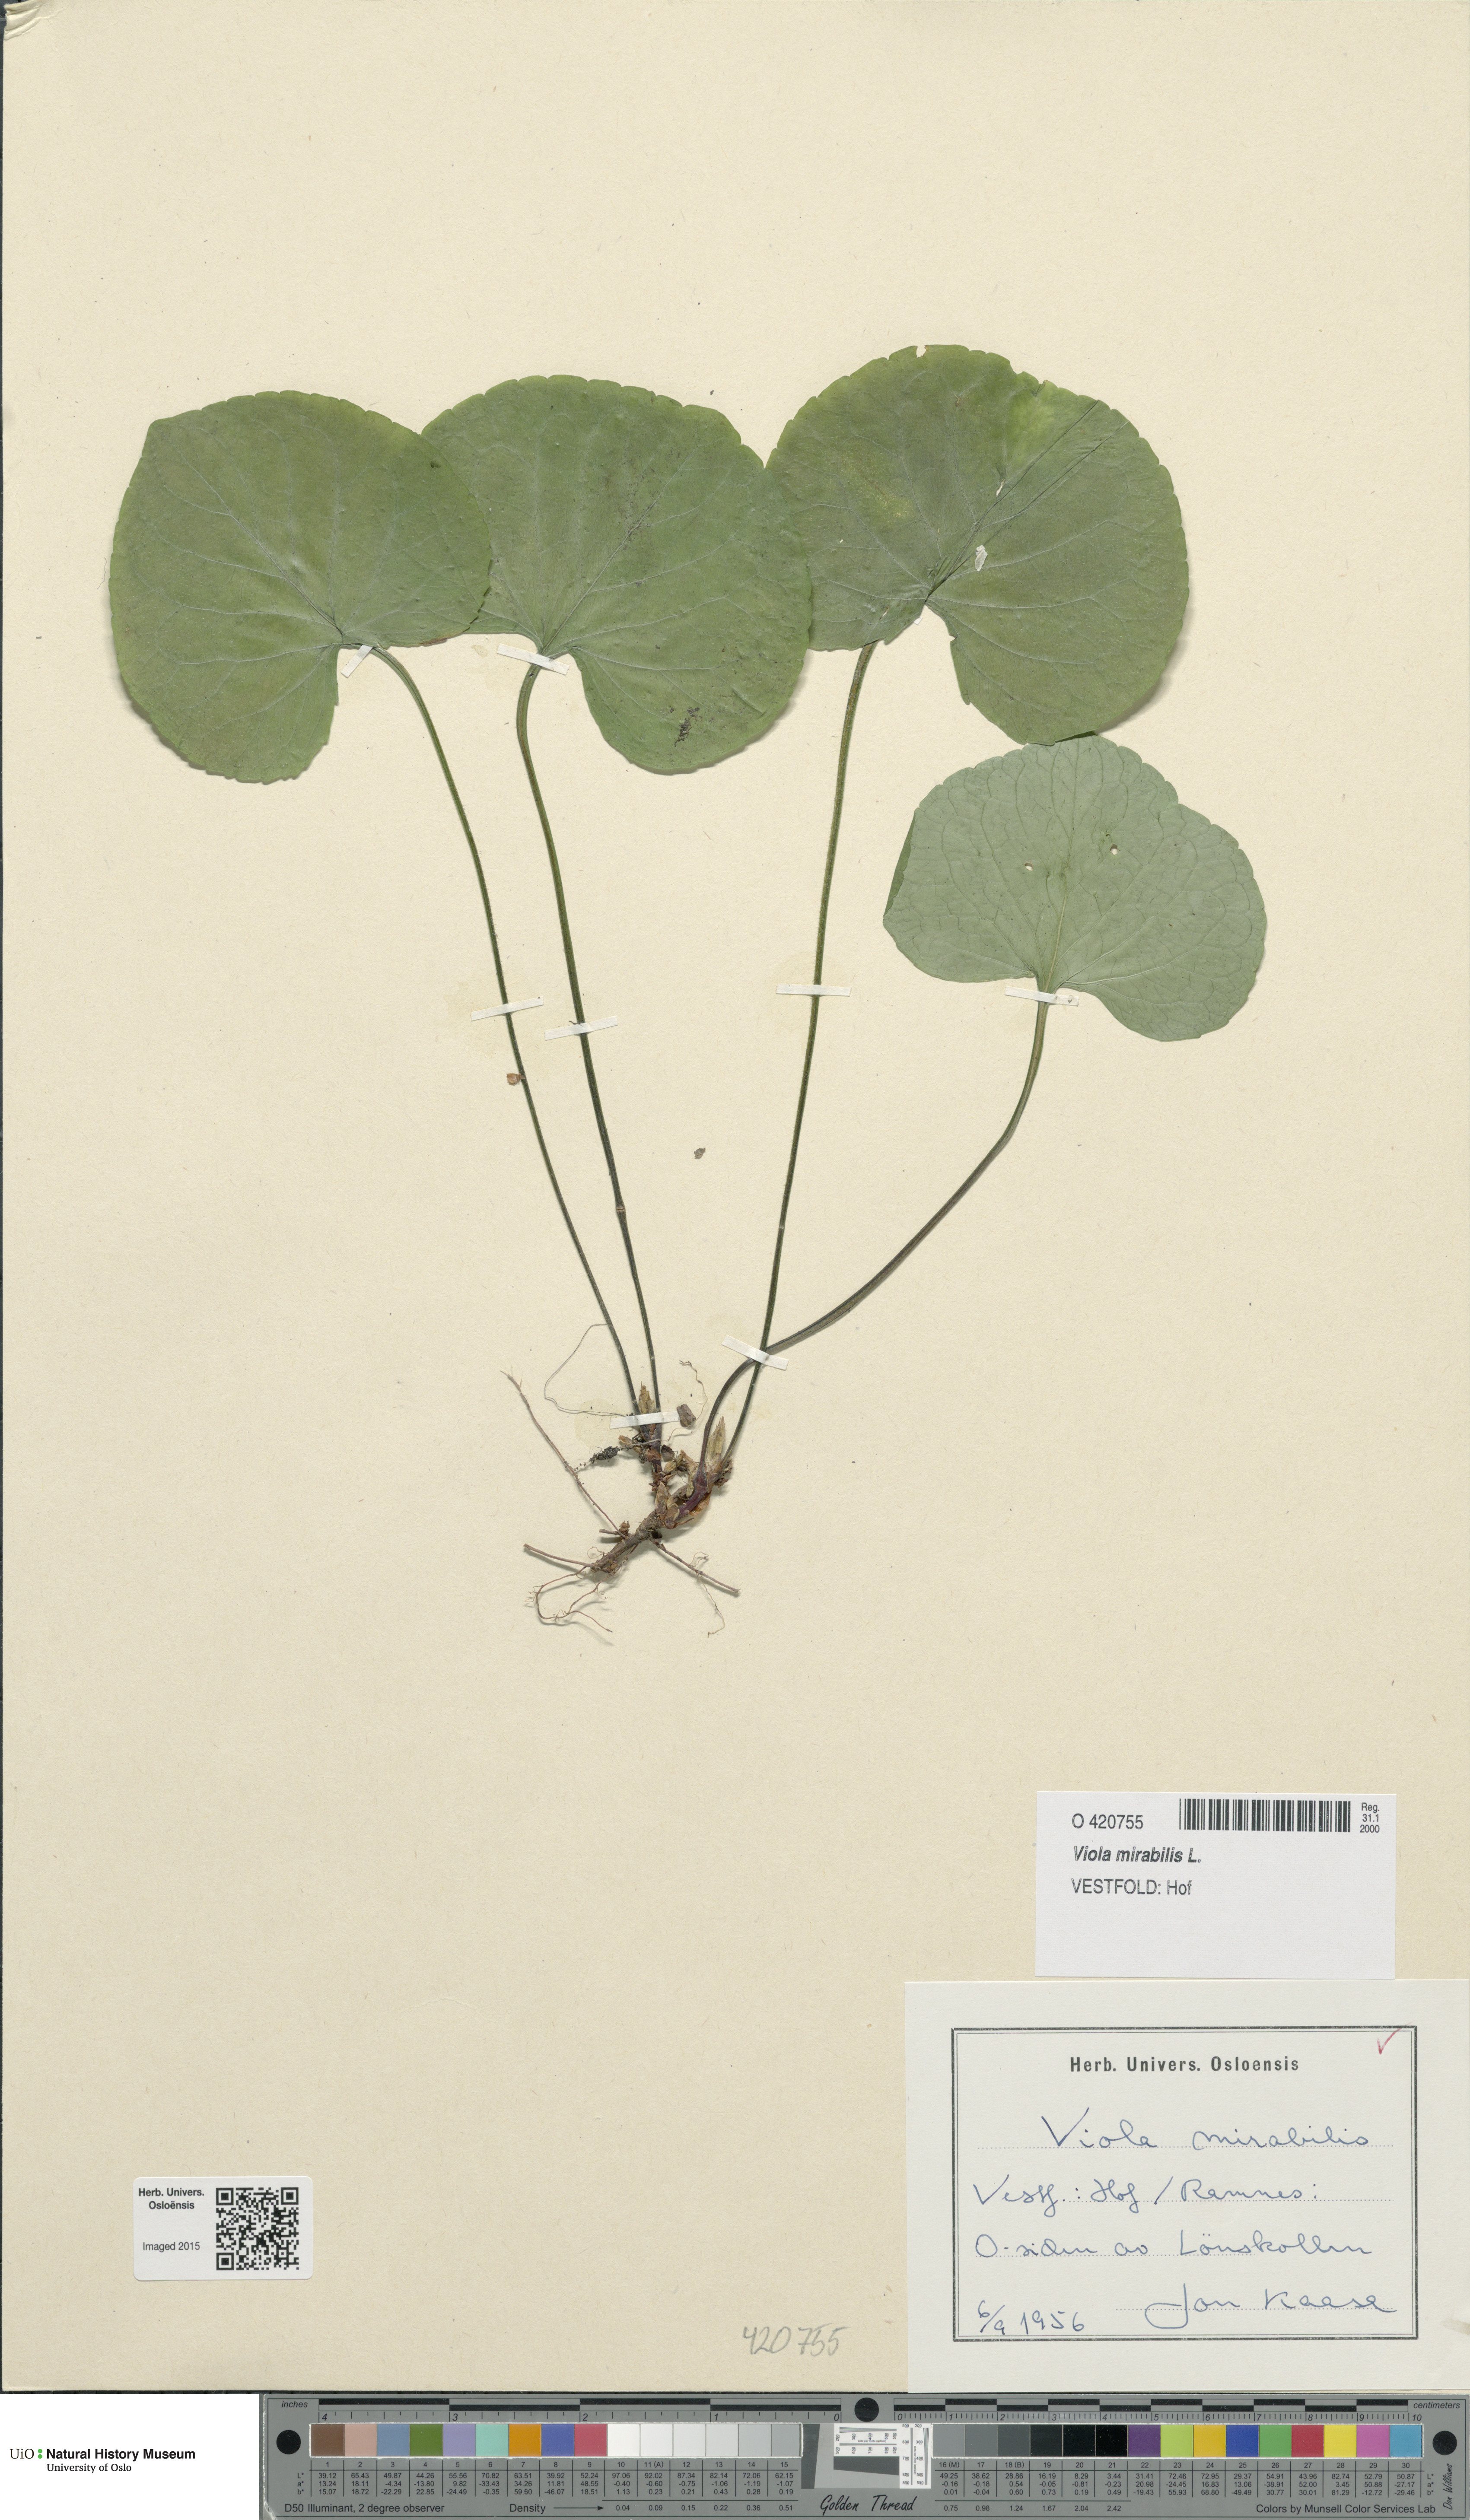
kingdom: Plantae
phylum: Tracheophyta
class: Magnoliopsida
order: Malpighiales
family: Violaceae
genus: Viola
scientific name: Viola mirabilis
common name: Wonder violet
